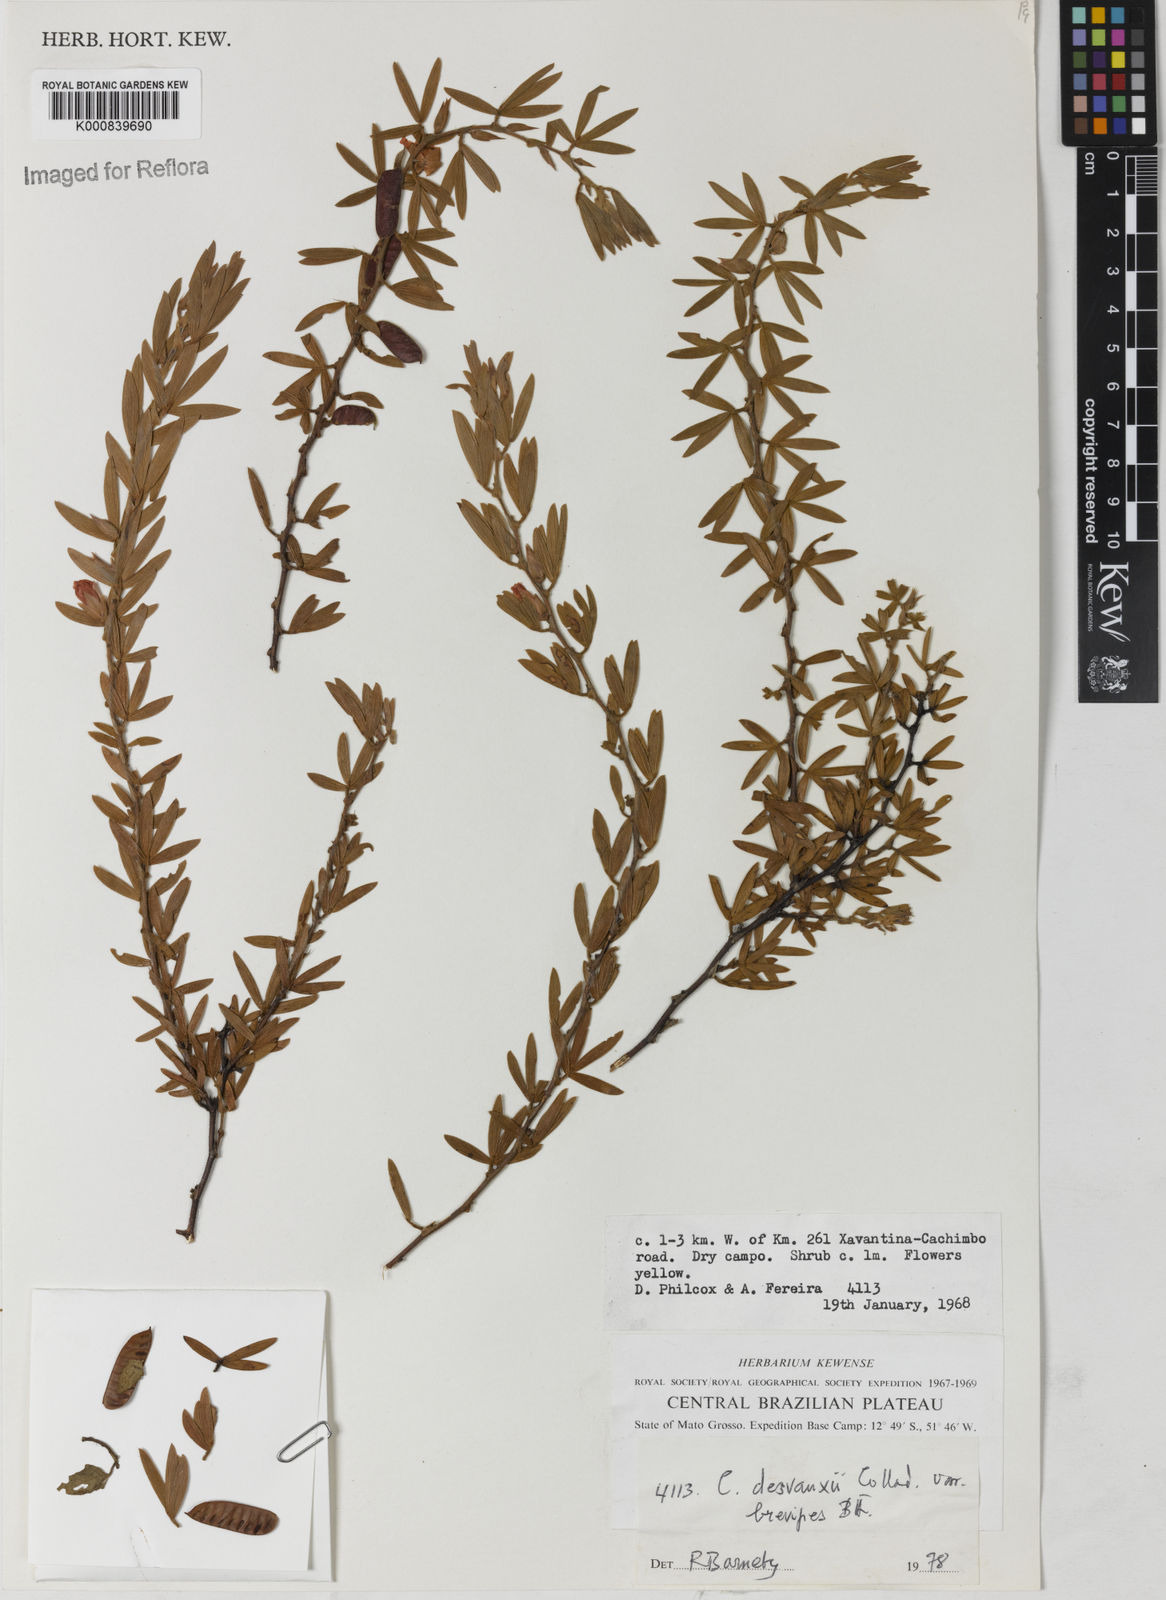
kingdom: Plantae
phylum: Tracheophyta
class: Magnoliopsida
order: Fabales
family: Fabaceae
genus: Chamaecrista
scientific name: Chamaecrista desvauxii
